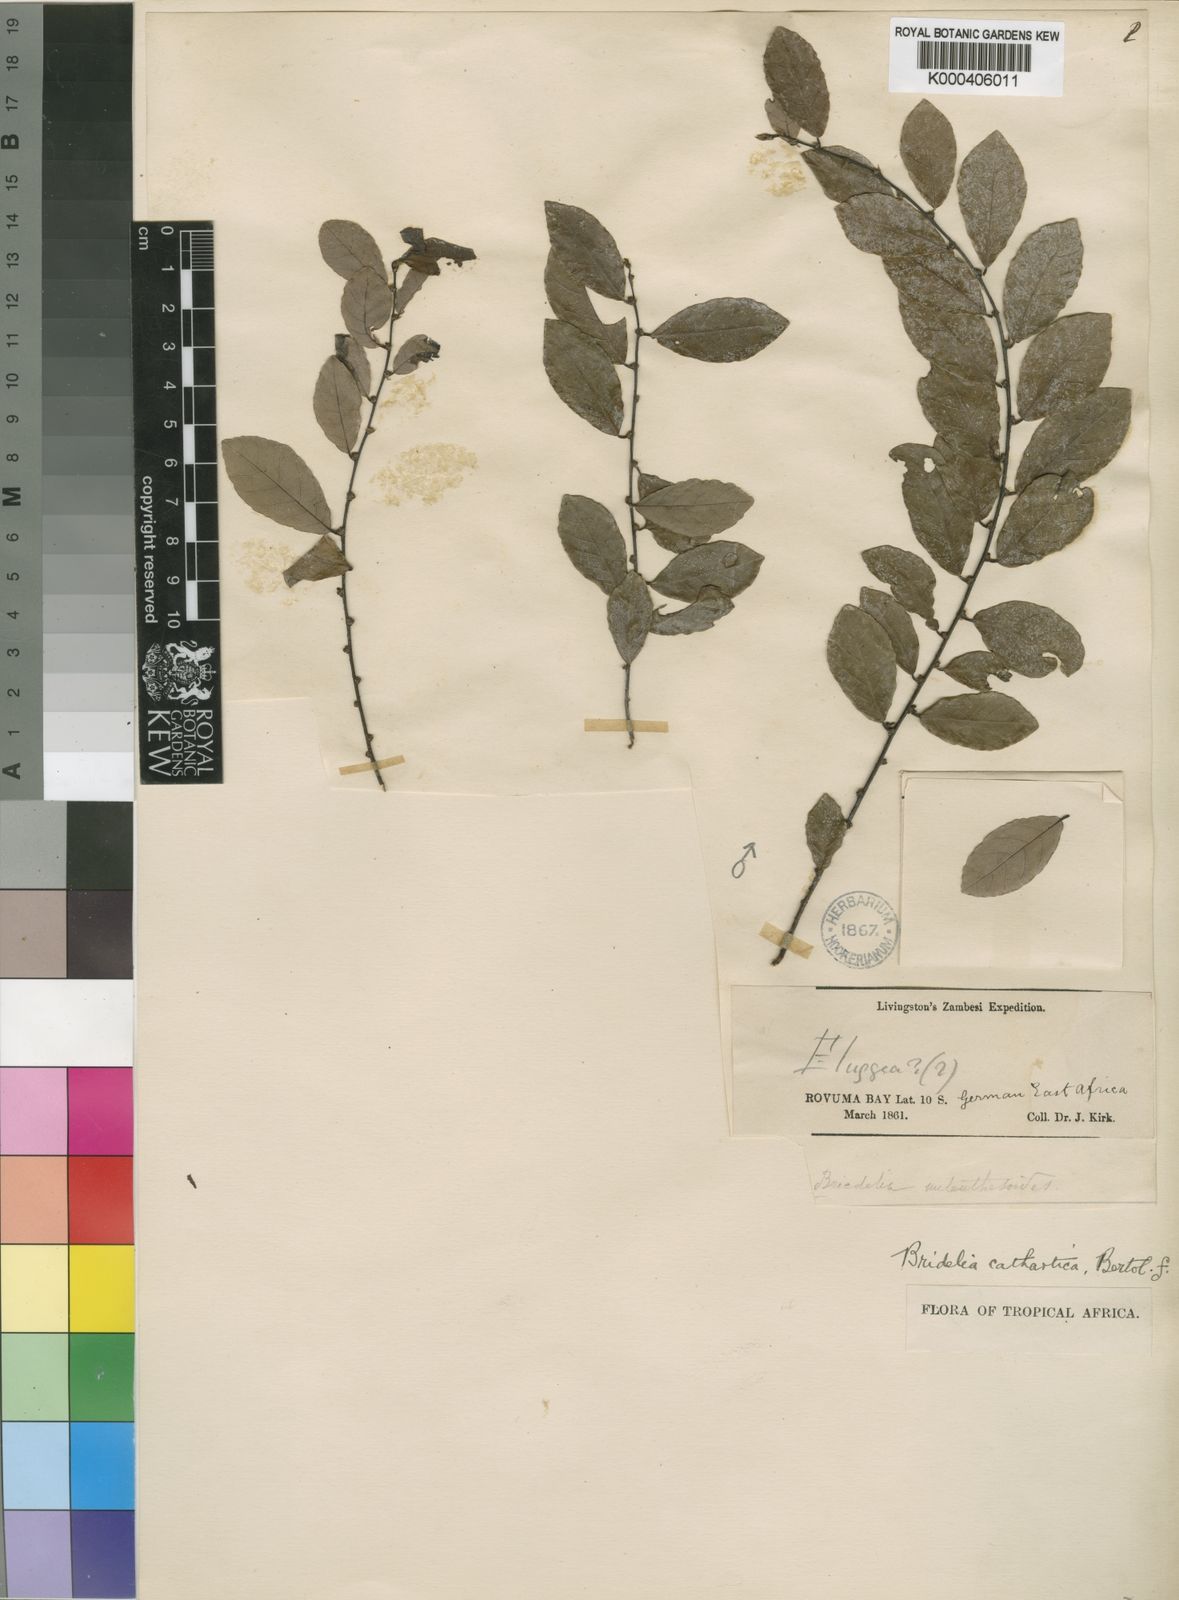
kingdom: Plantae
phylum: Tracheophyta
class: Magnoliopsida
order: Malpighiales
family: Phyllanthaceae
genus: Bridelia
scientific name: Bridelia cathartica
